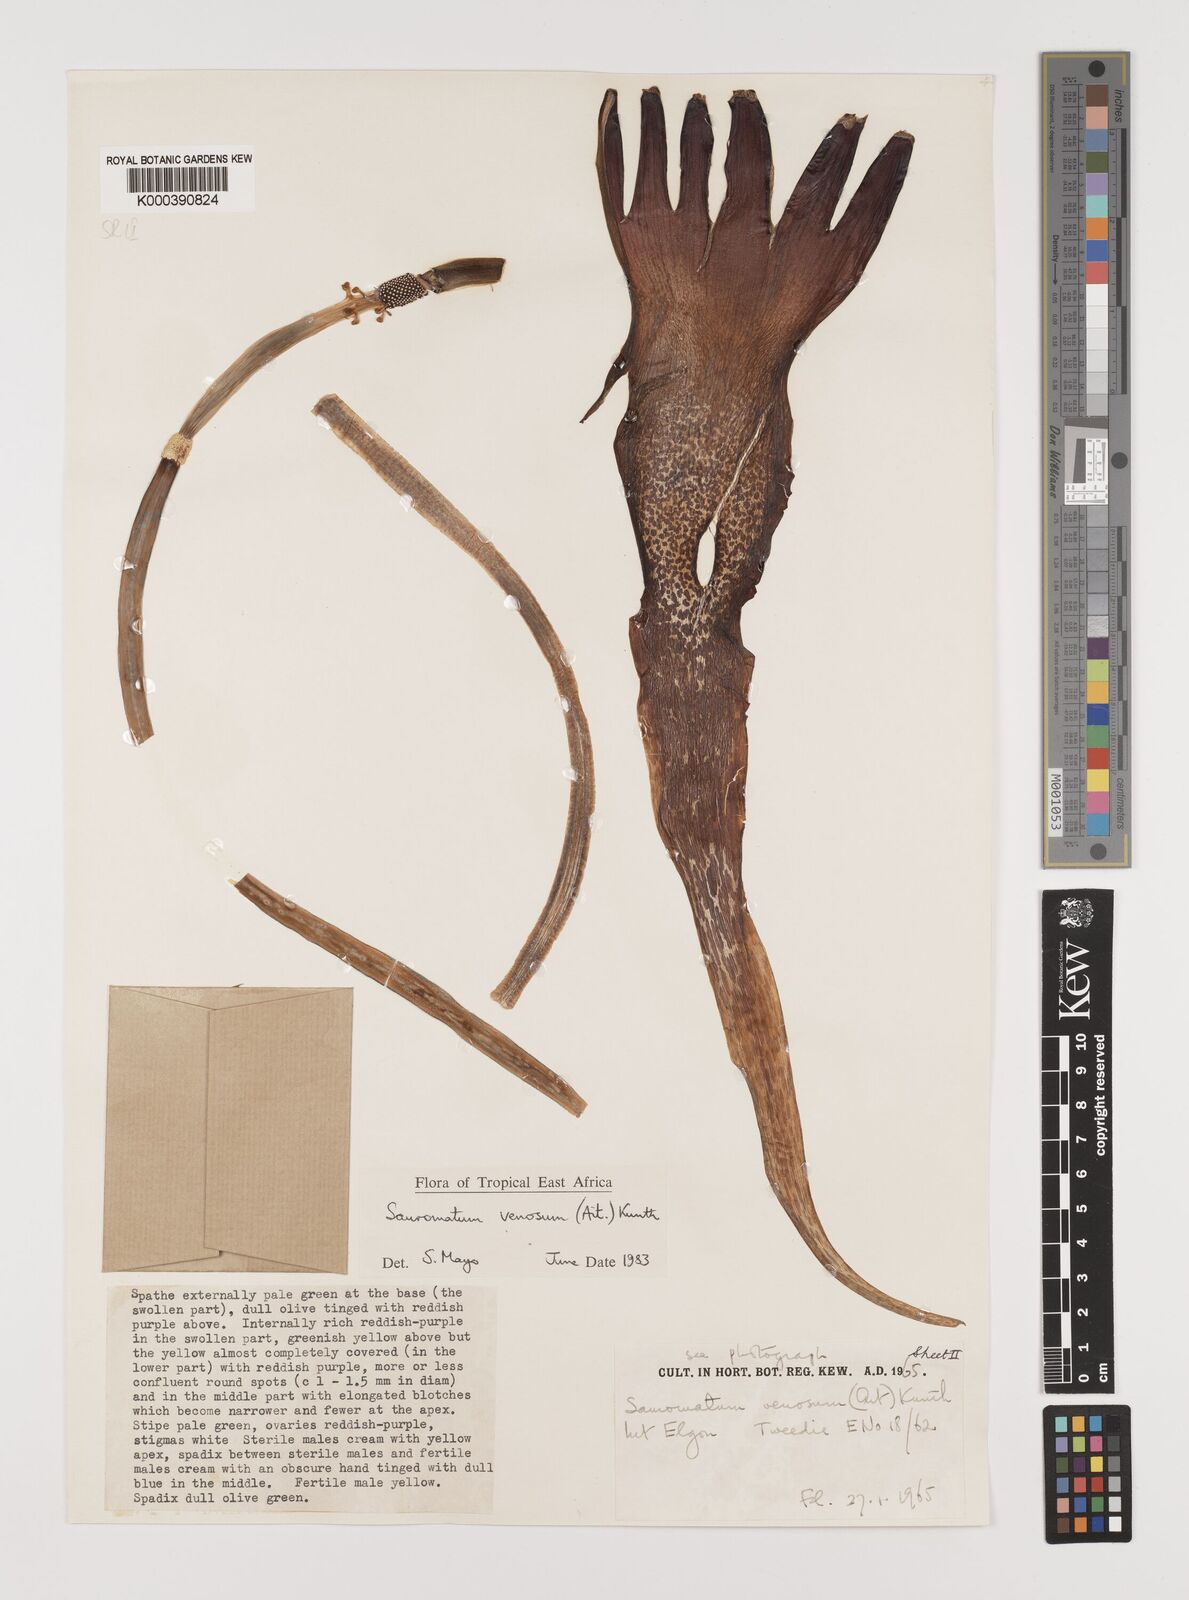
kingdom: Plantae
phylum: Tracheophyta
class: Liliopsida
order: Alismatales
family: Araceae
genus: Sauromatum
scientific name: Sauromatum venosum
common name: Voodoo lily
